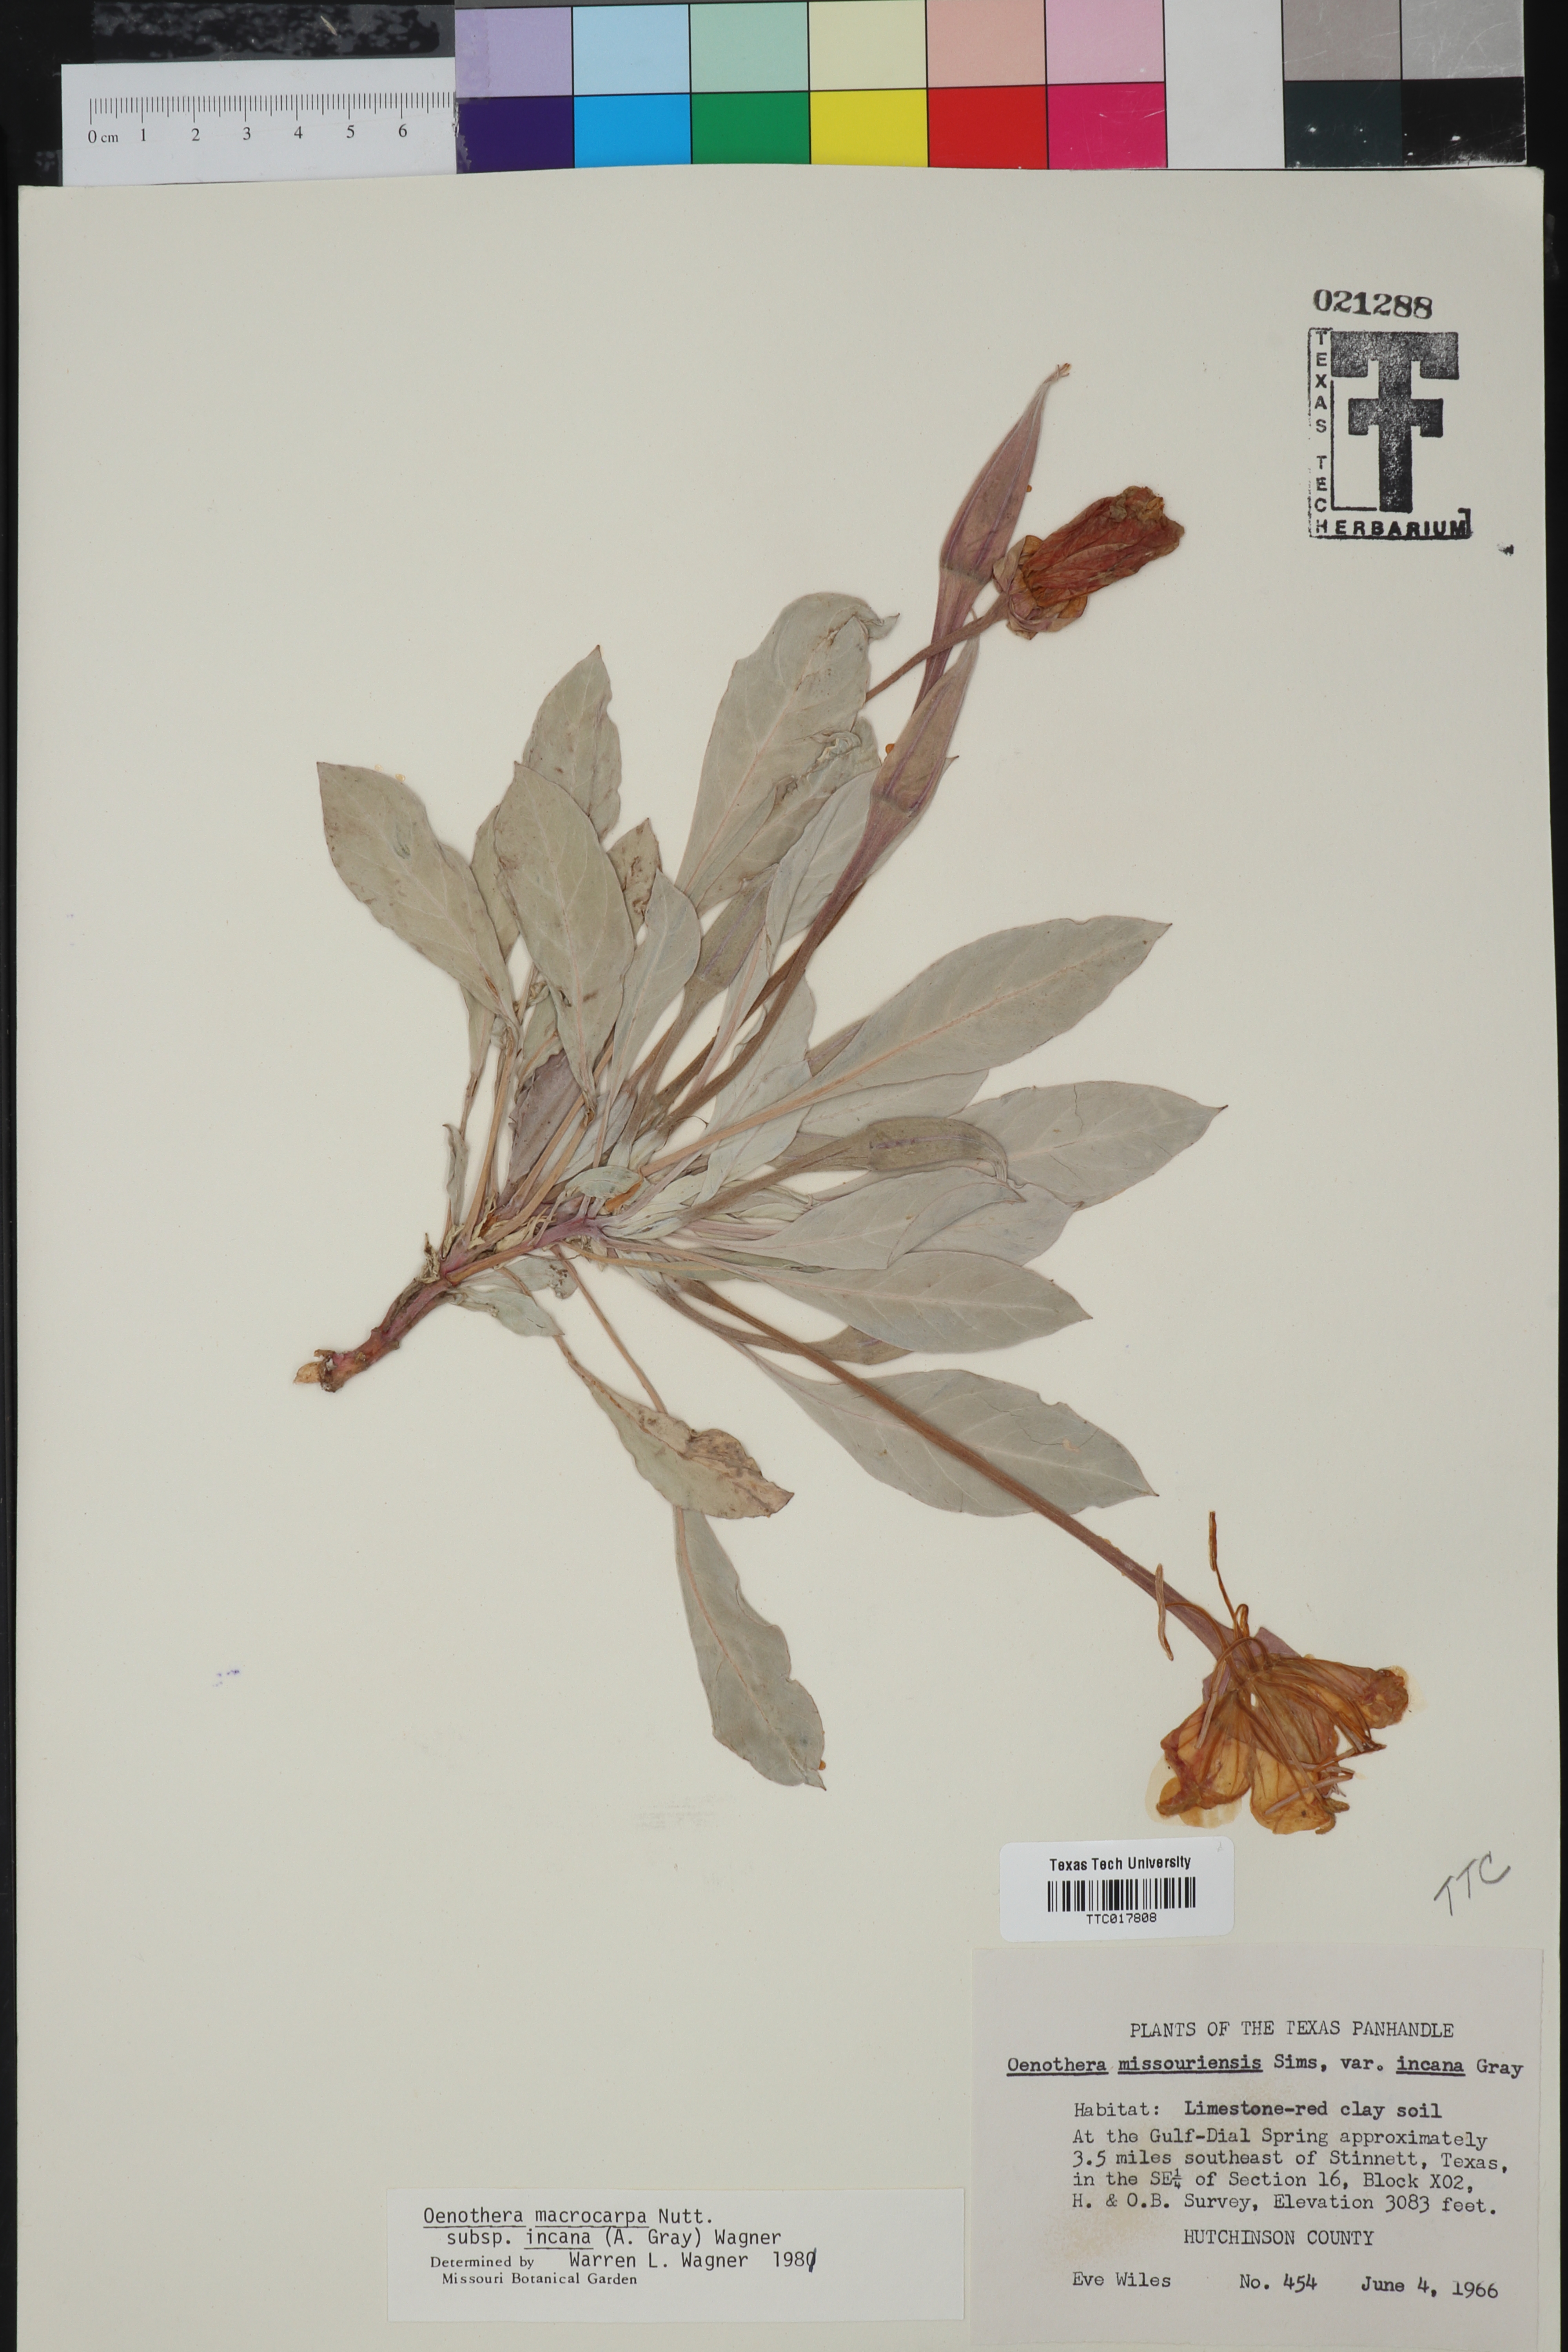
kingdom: Plantae
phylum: Tracheophyta
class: Magnoliopsida
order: Myrtales
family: Onagraceae
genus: Oenothera
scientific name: Oenothera macrocarpa
